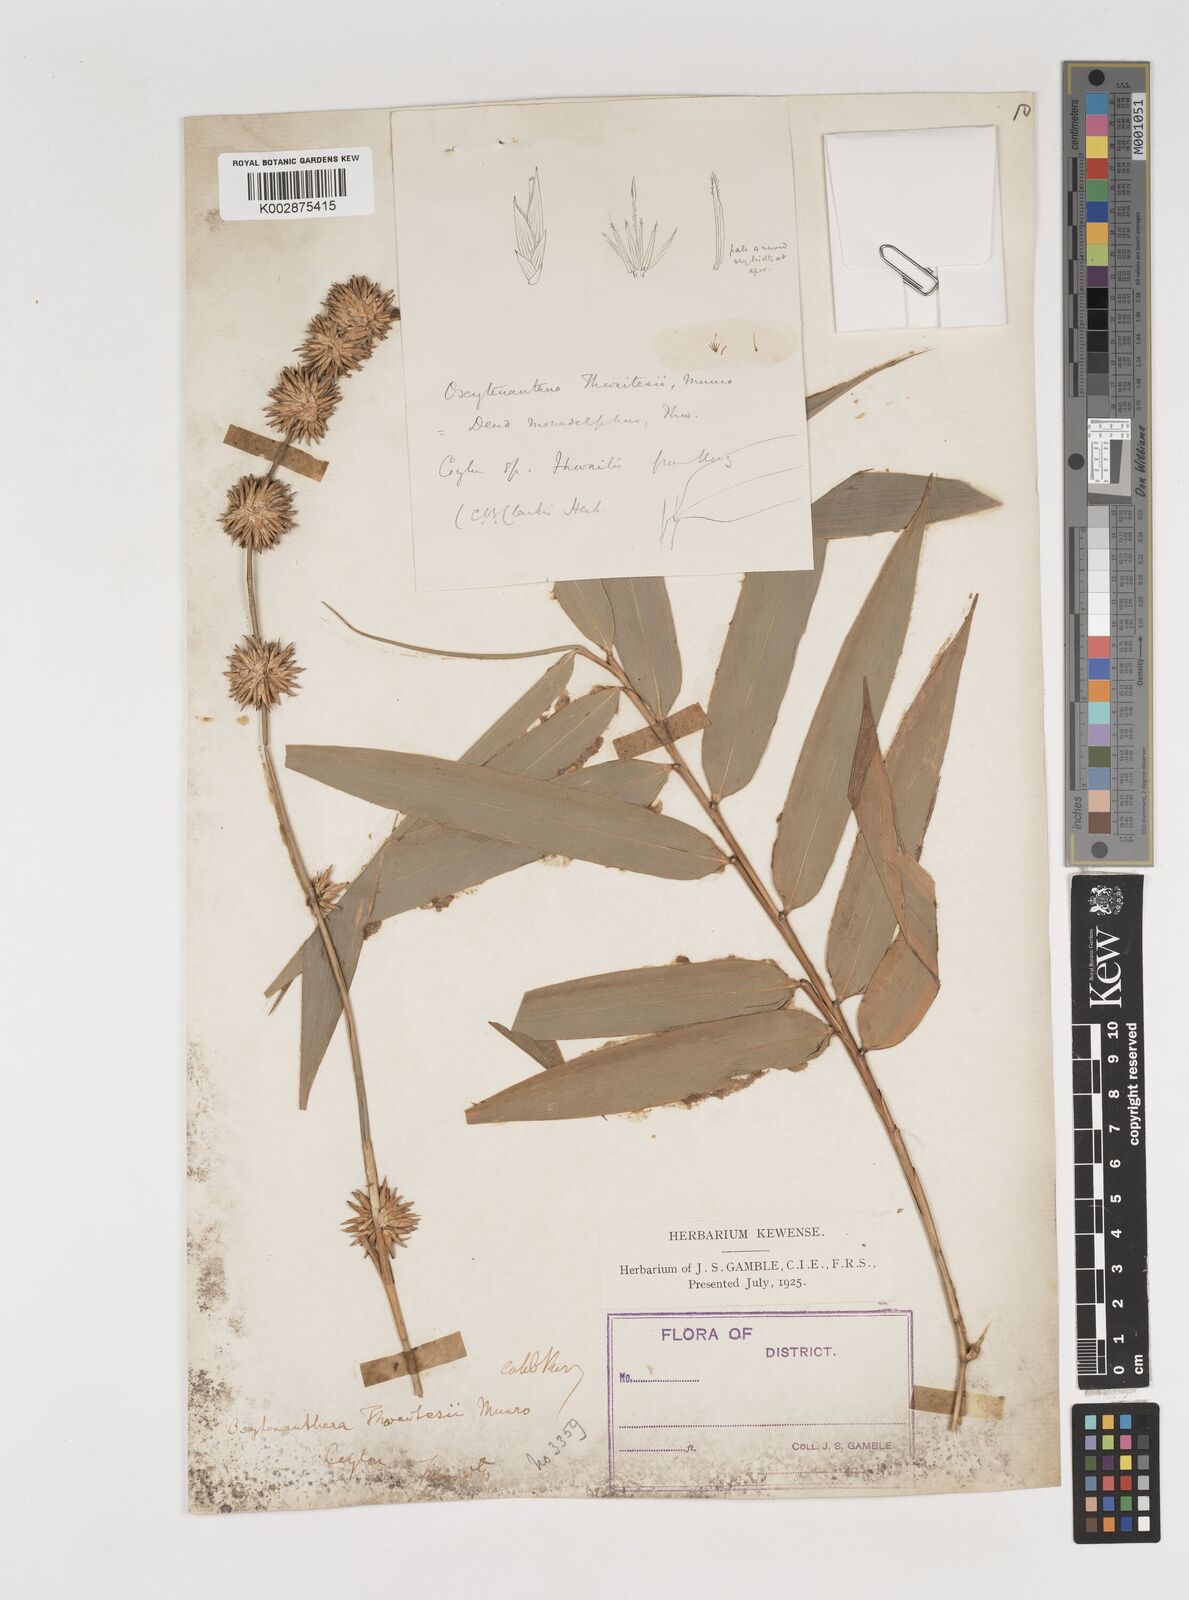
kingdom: Plantae
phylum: Tracheophyta
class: Liliopsida
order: Poales
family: Poaceae
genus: Dendrocalamus
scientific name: Dendrocalamus
